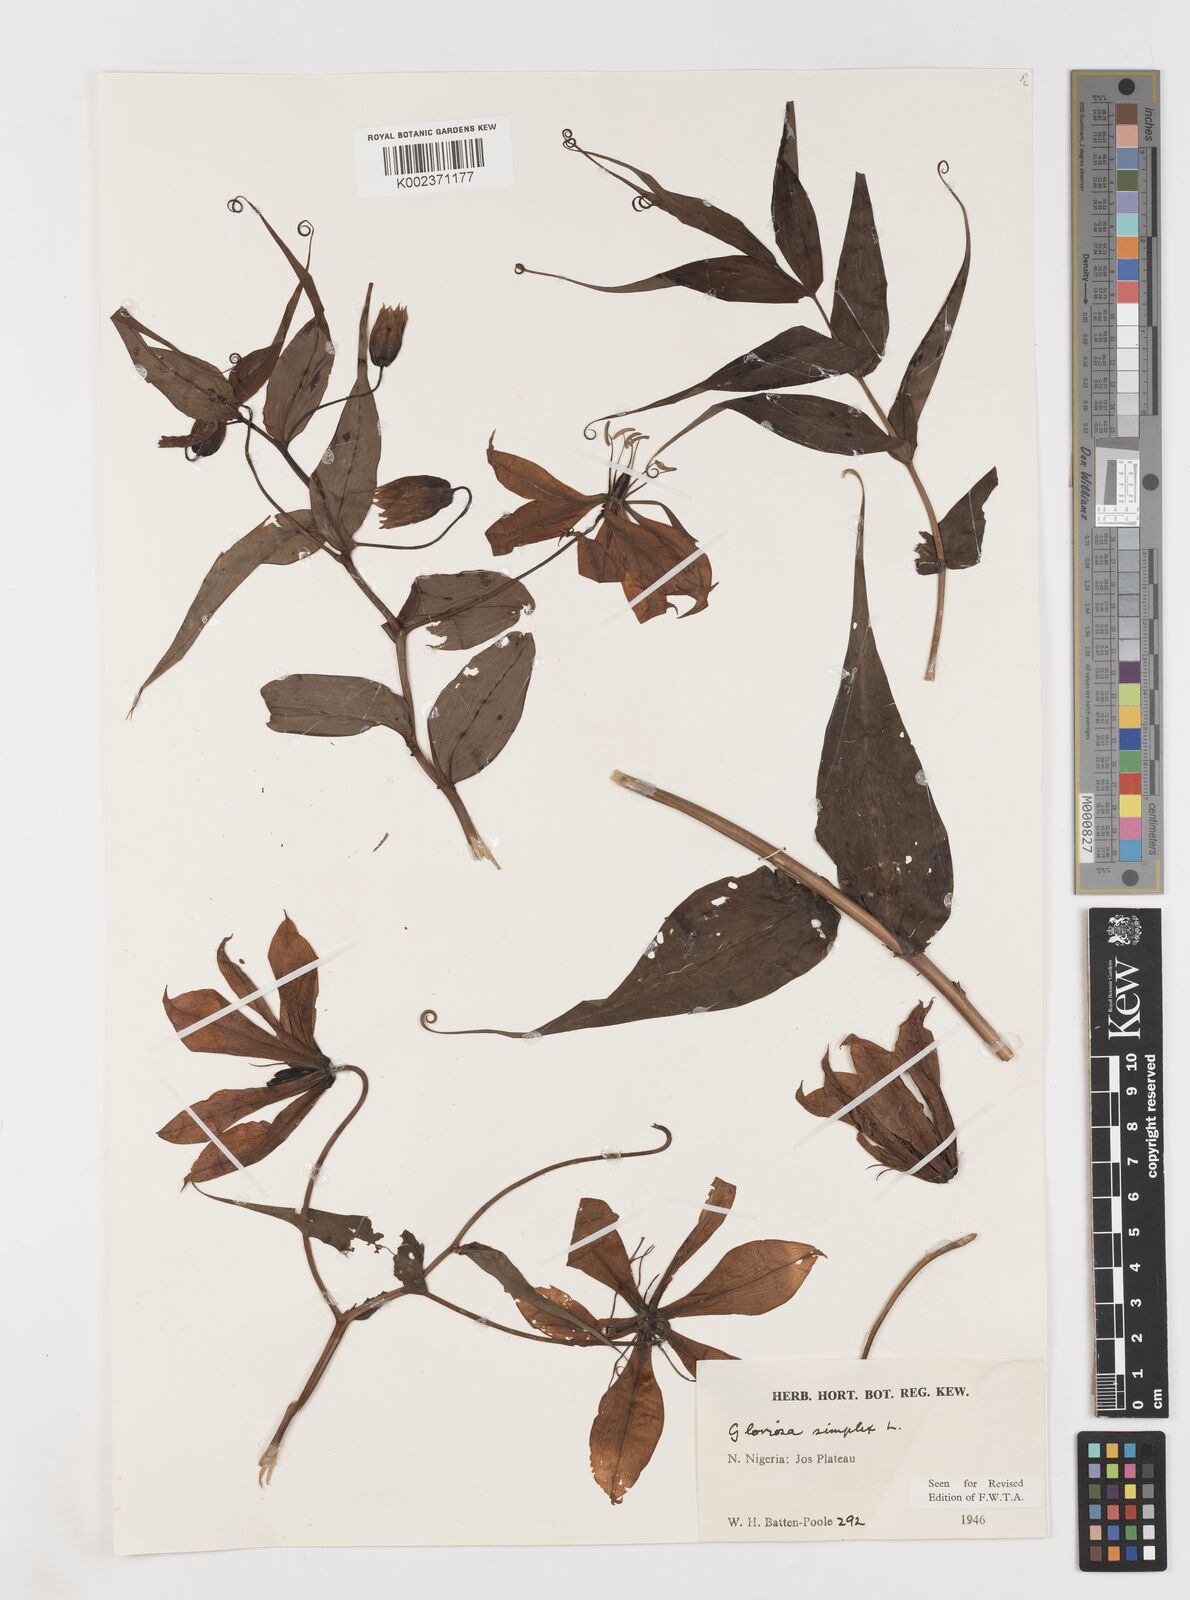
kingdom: Plantae
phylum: Tracheophyta
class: Liliopsida
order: Liliales
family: Colchicaceae
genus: Gloriosa
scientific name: Gloriosa simplex
